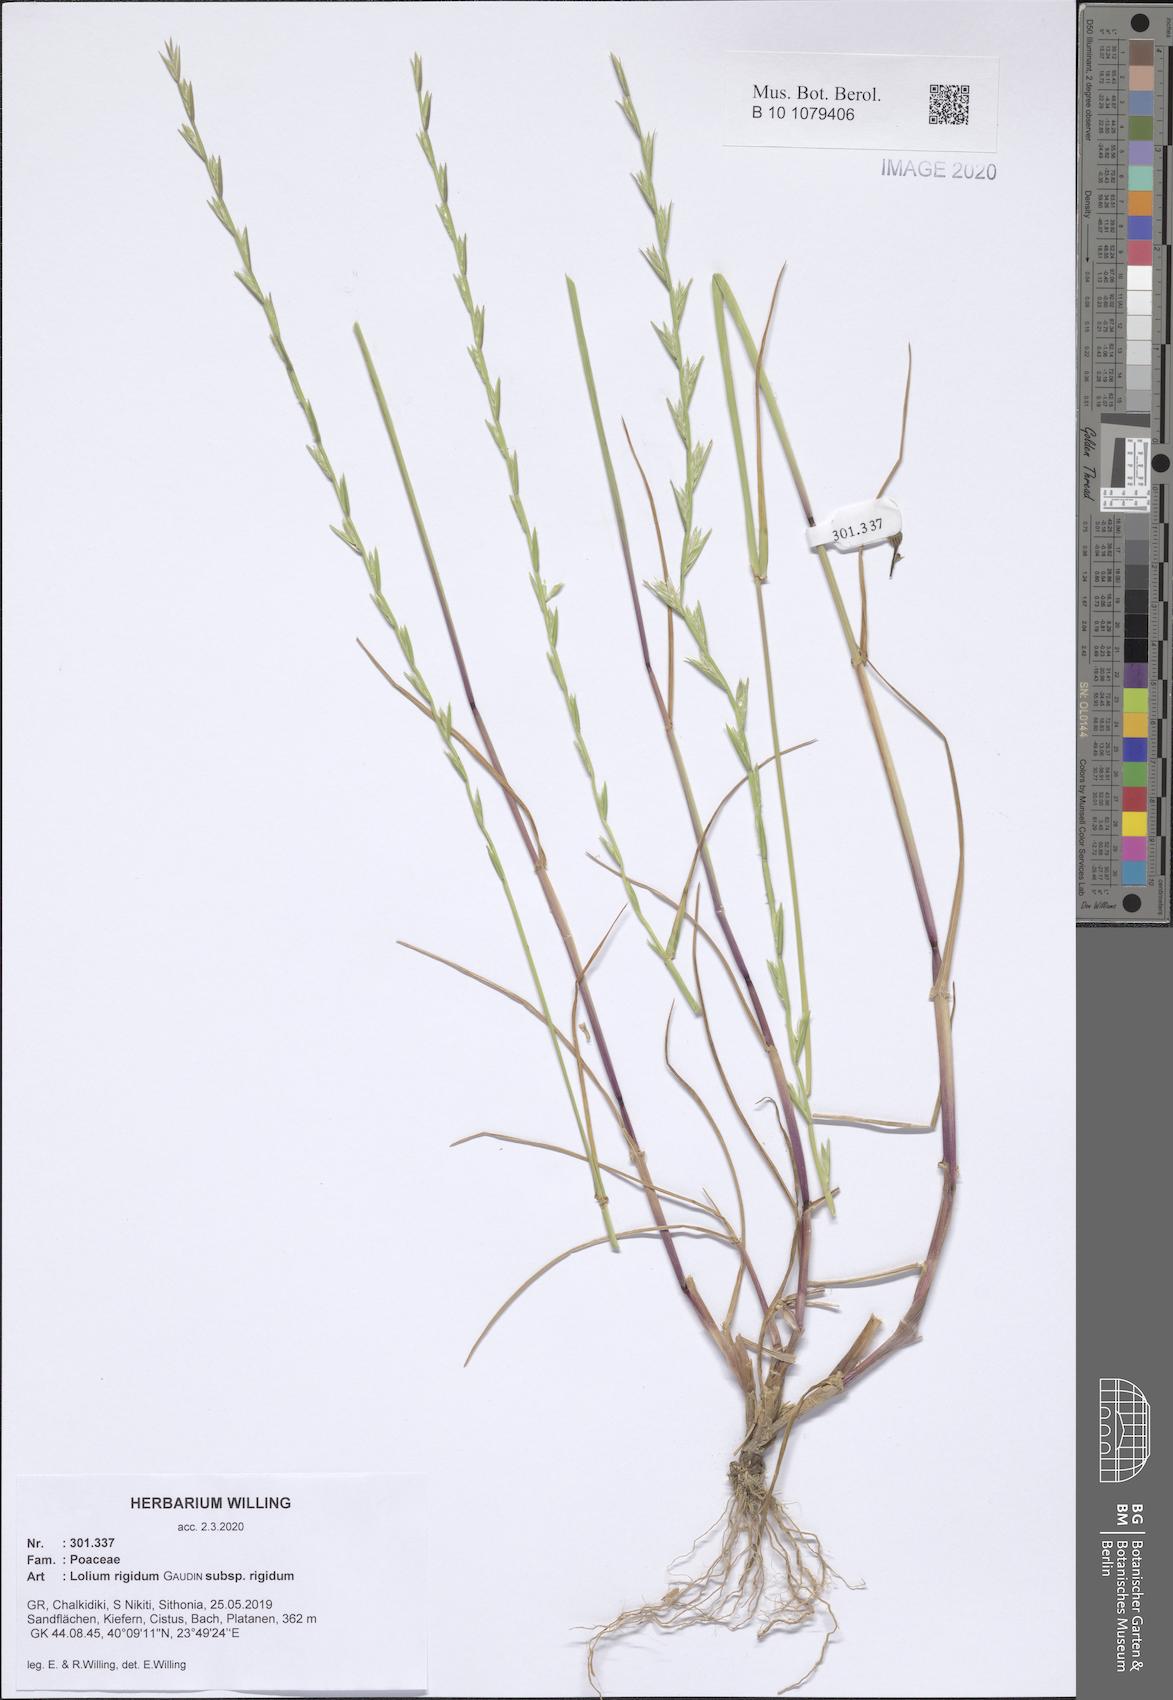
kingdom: Plantae
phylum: Tracheophyta
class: Liliopsida
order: Poales
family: Poaceae
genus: Lolium
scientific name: Lolium rigidum
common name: Wimmera ryegrass
